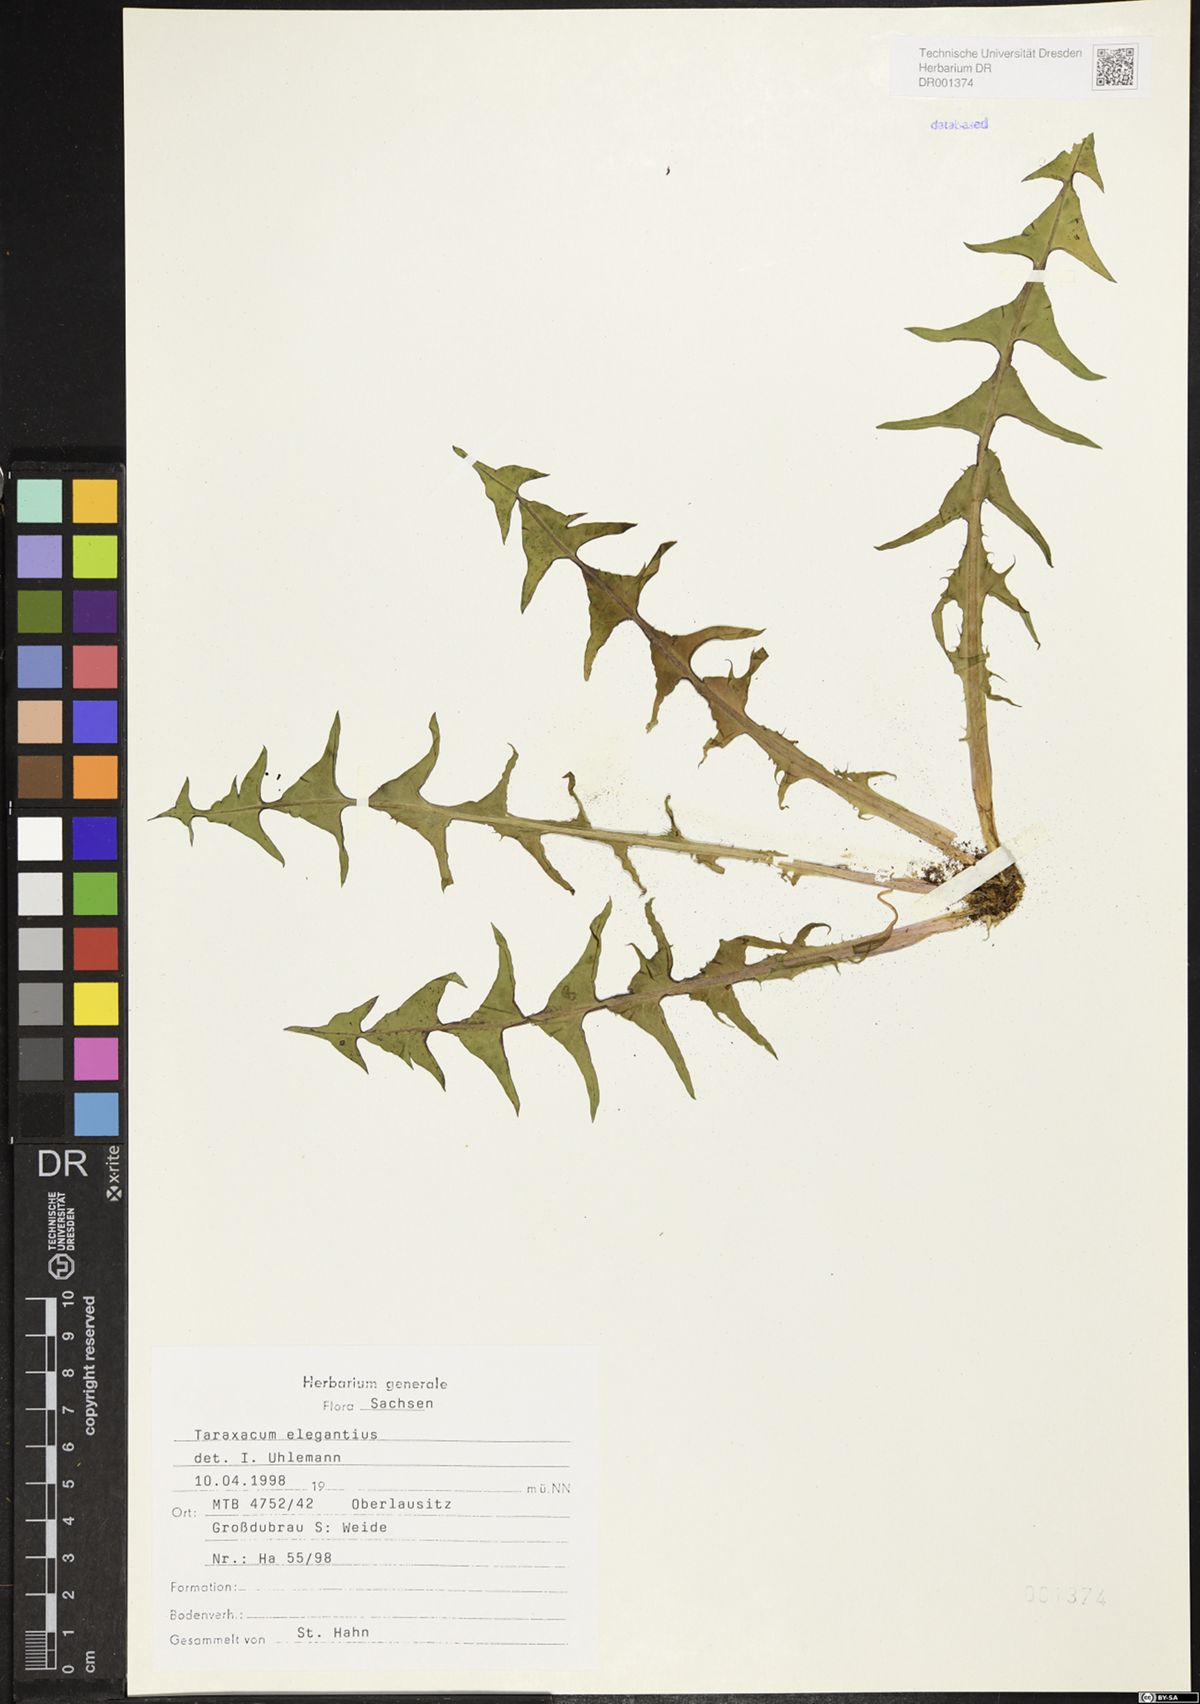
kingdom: Plantae
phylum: Tracheophyta
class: Magnoliopsida
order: Asterales
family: Asteraceae
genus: Taraxacum
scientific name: Taraxacum elegantius
